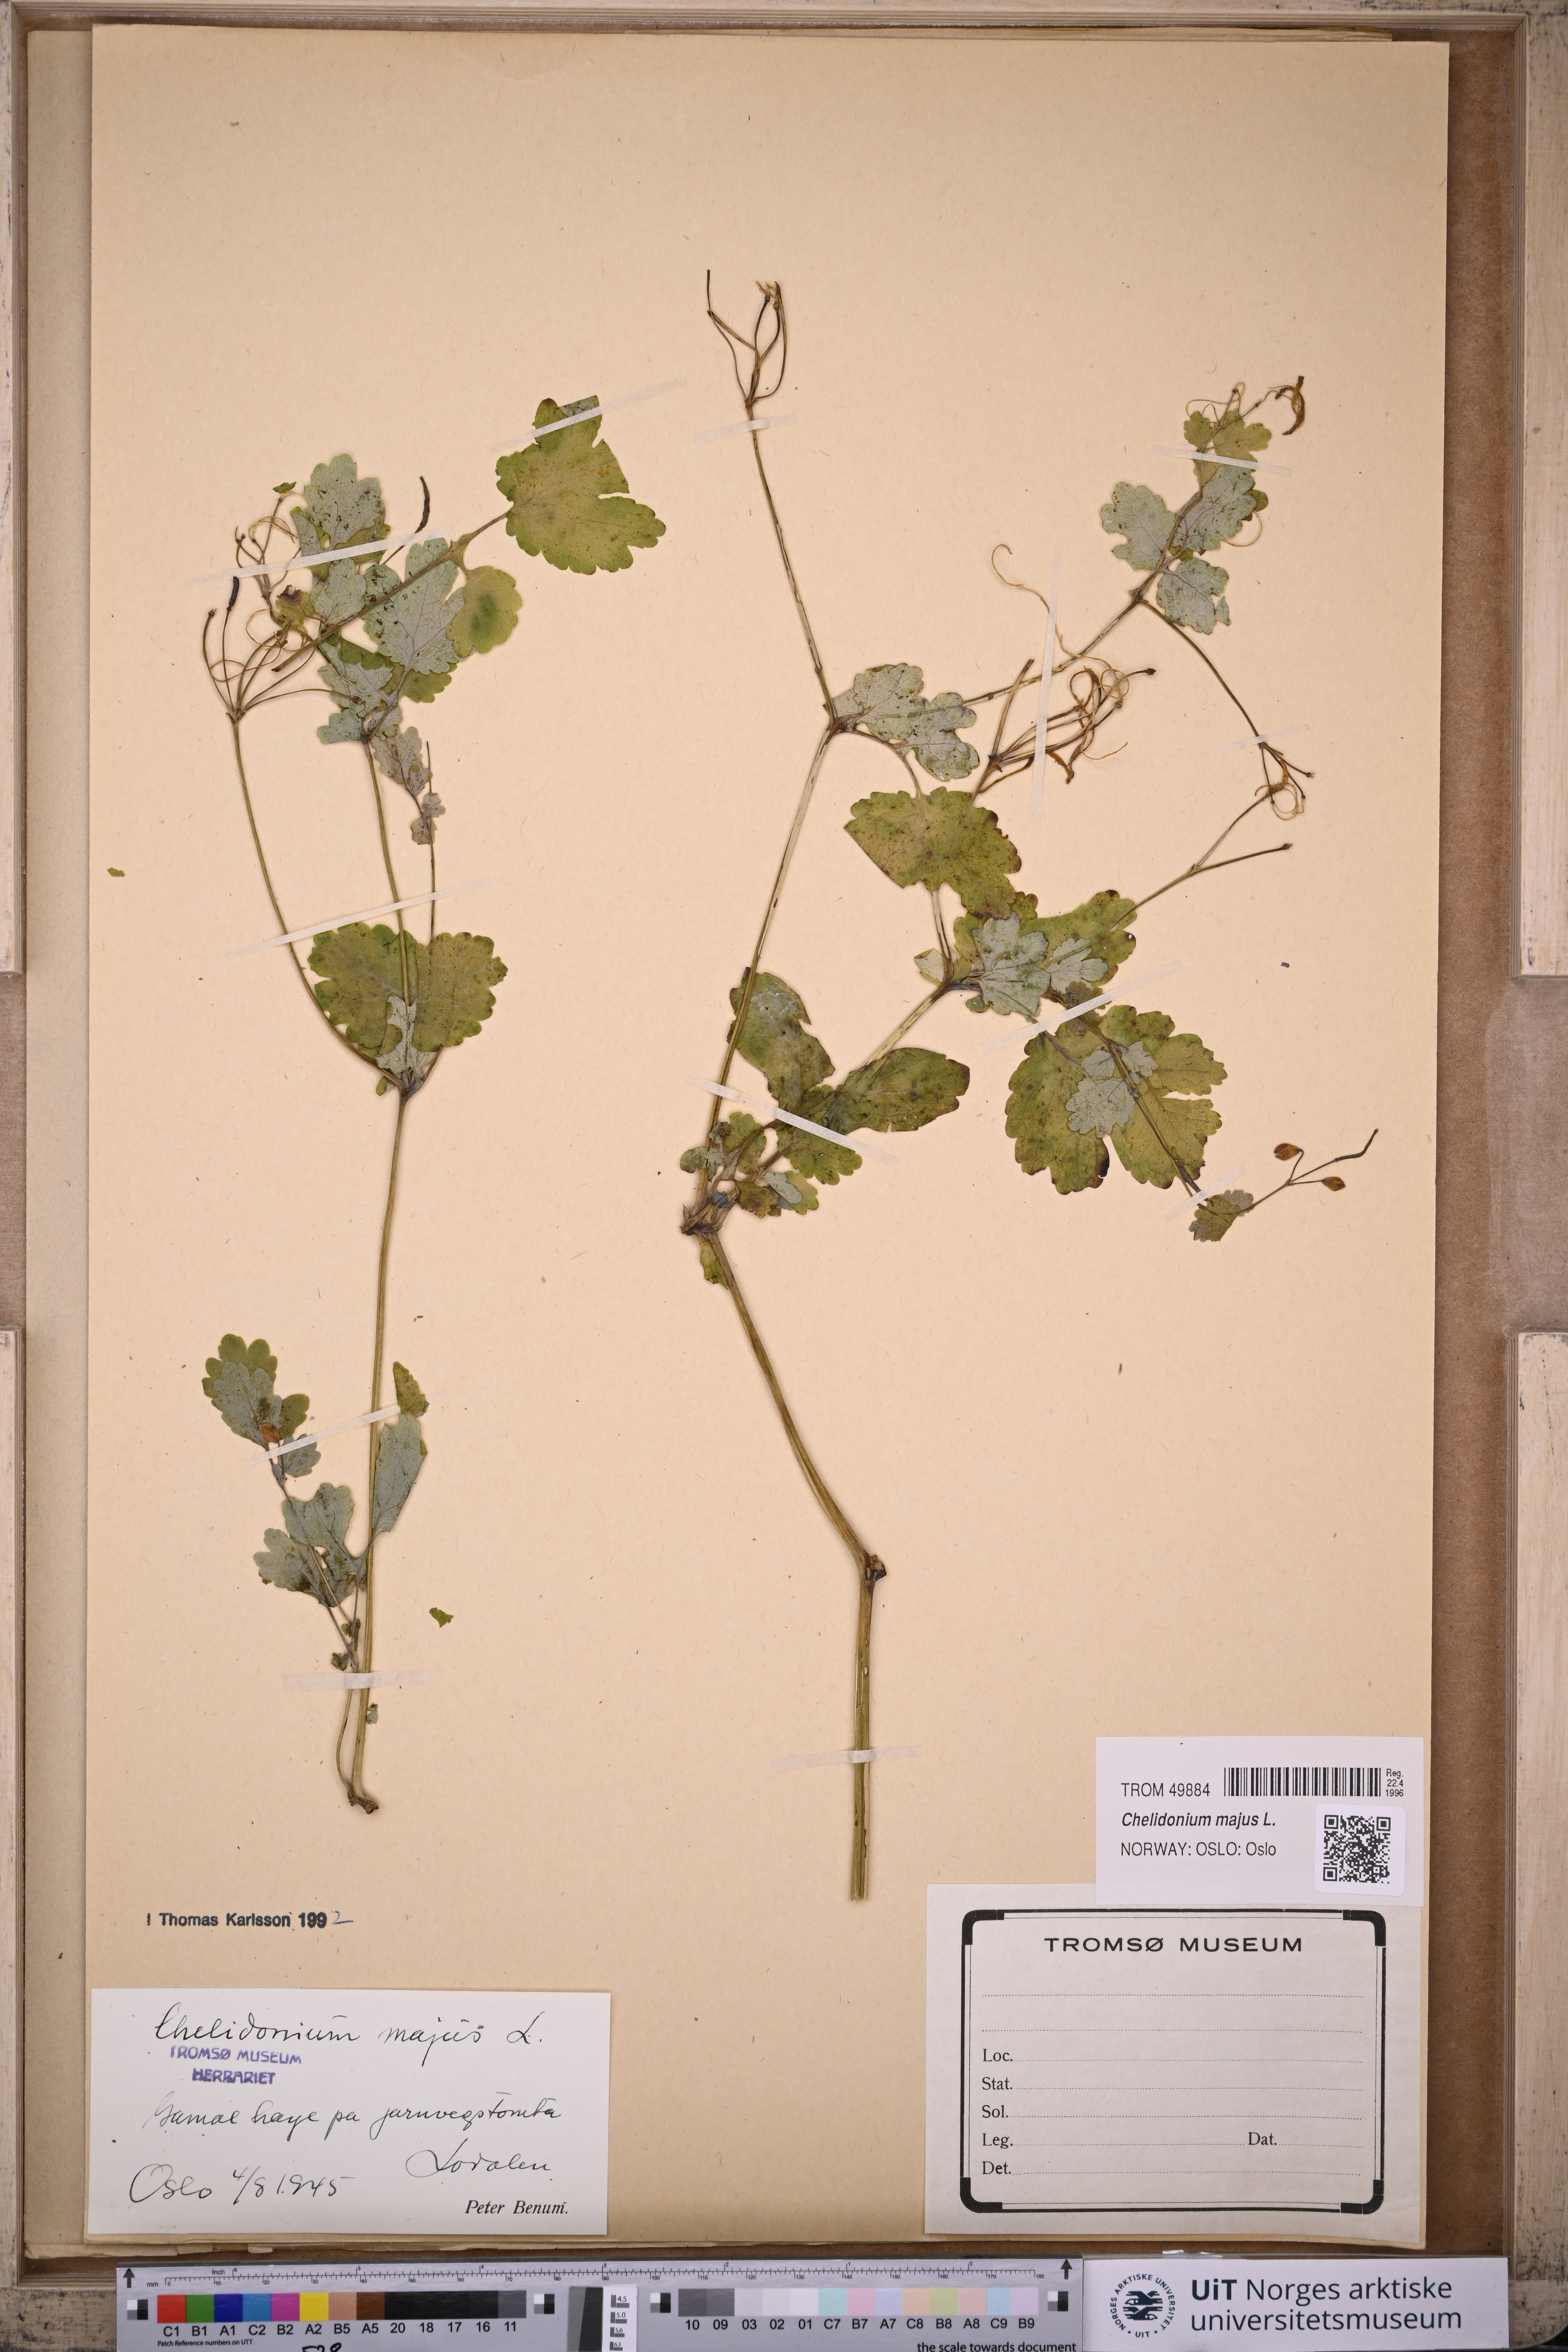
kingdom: Plantae
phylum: Tracheophyta
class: Magnoliopsida
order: Ranunculales
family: Papaveraceae
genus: Chelidonium
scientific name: Chelidonium majus
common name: Greater celandine
